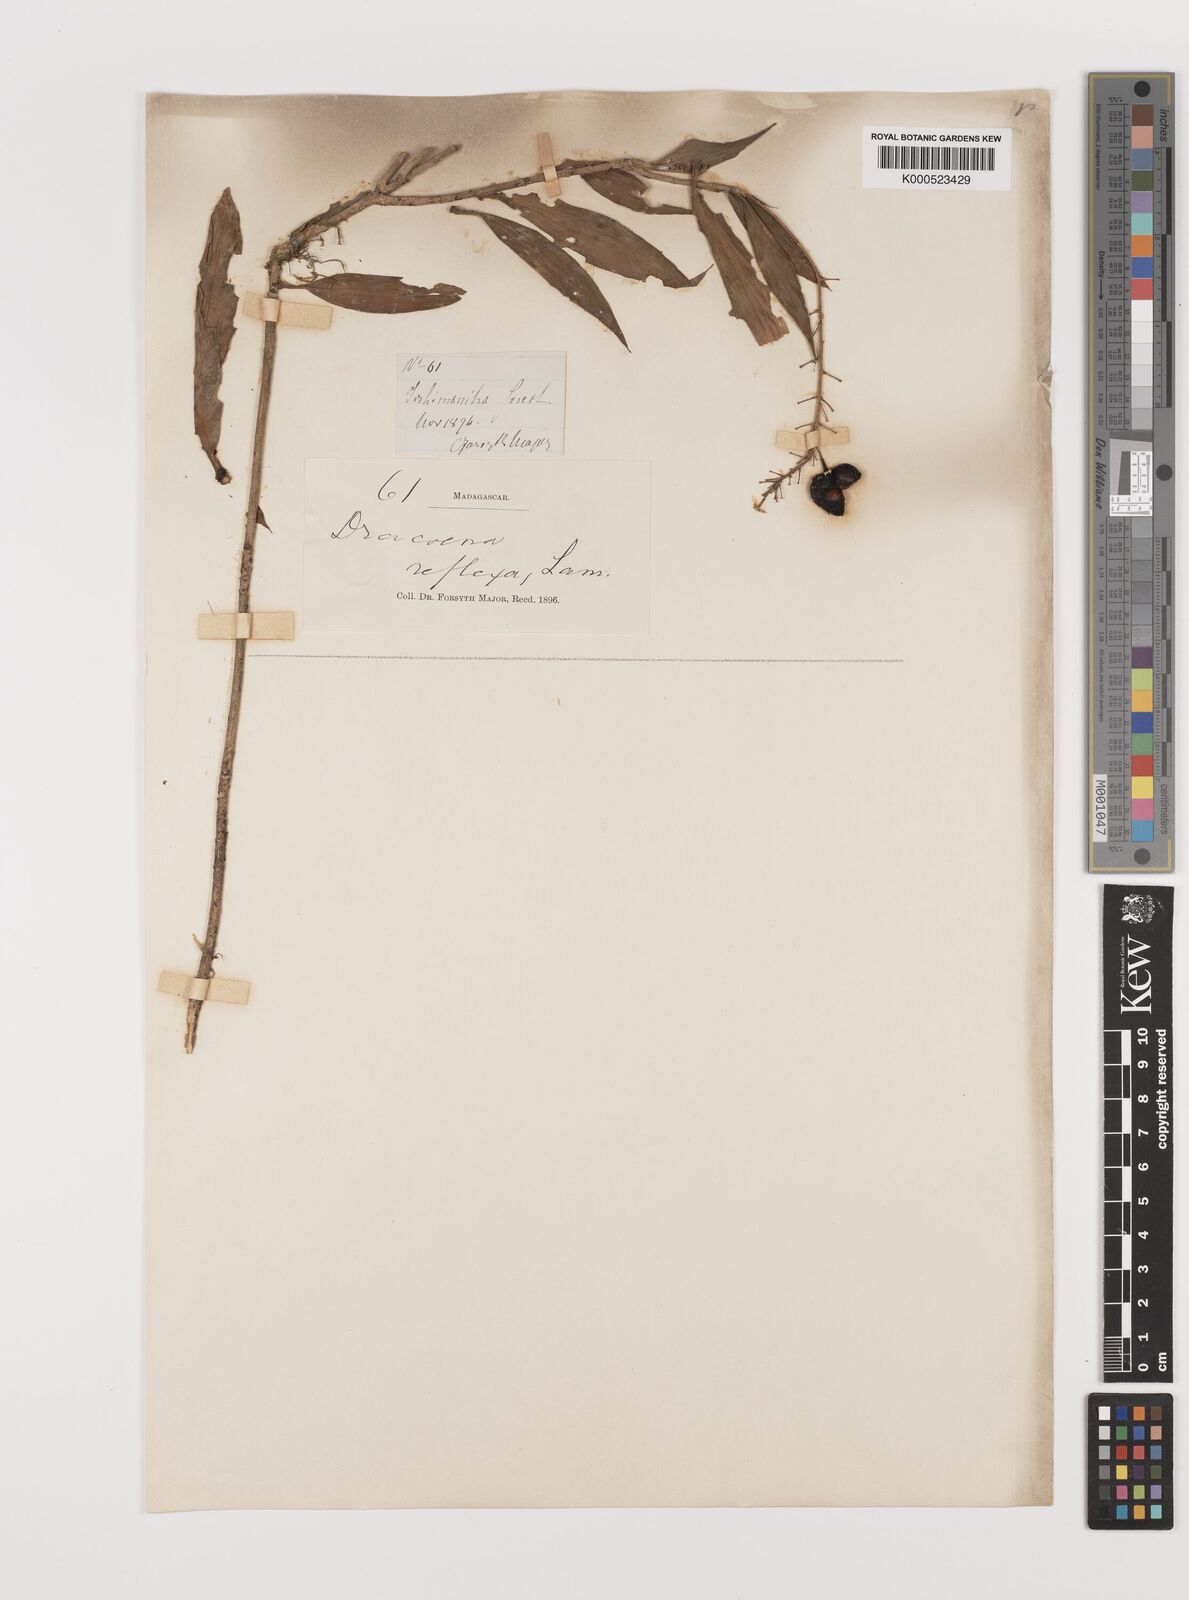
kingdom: Plantae
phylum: Tracheophyta
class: Liliopsida
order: Asparagales
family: Asparagaceae
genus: Dracaena
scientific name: Dracaena reflexa
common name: Song-of-india
